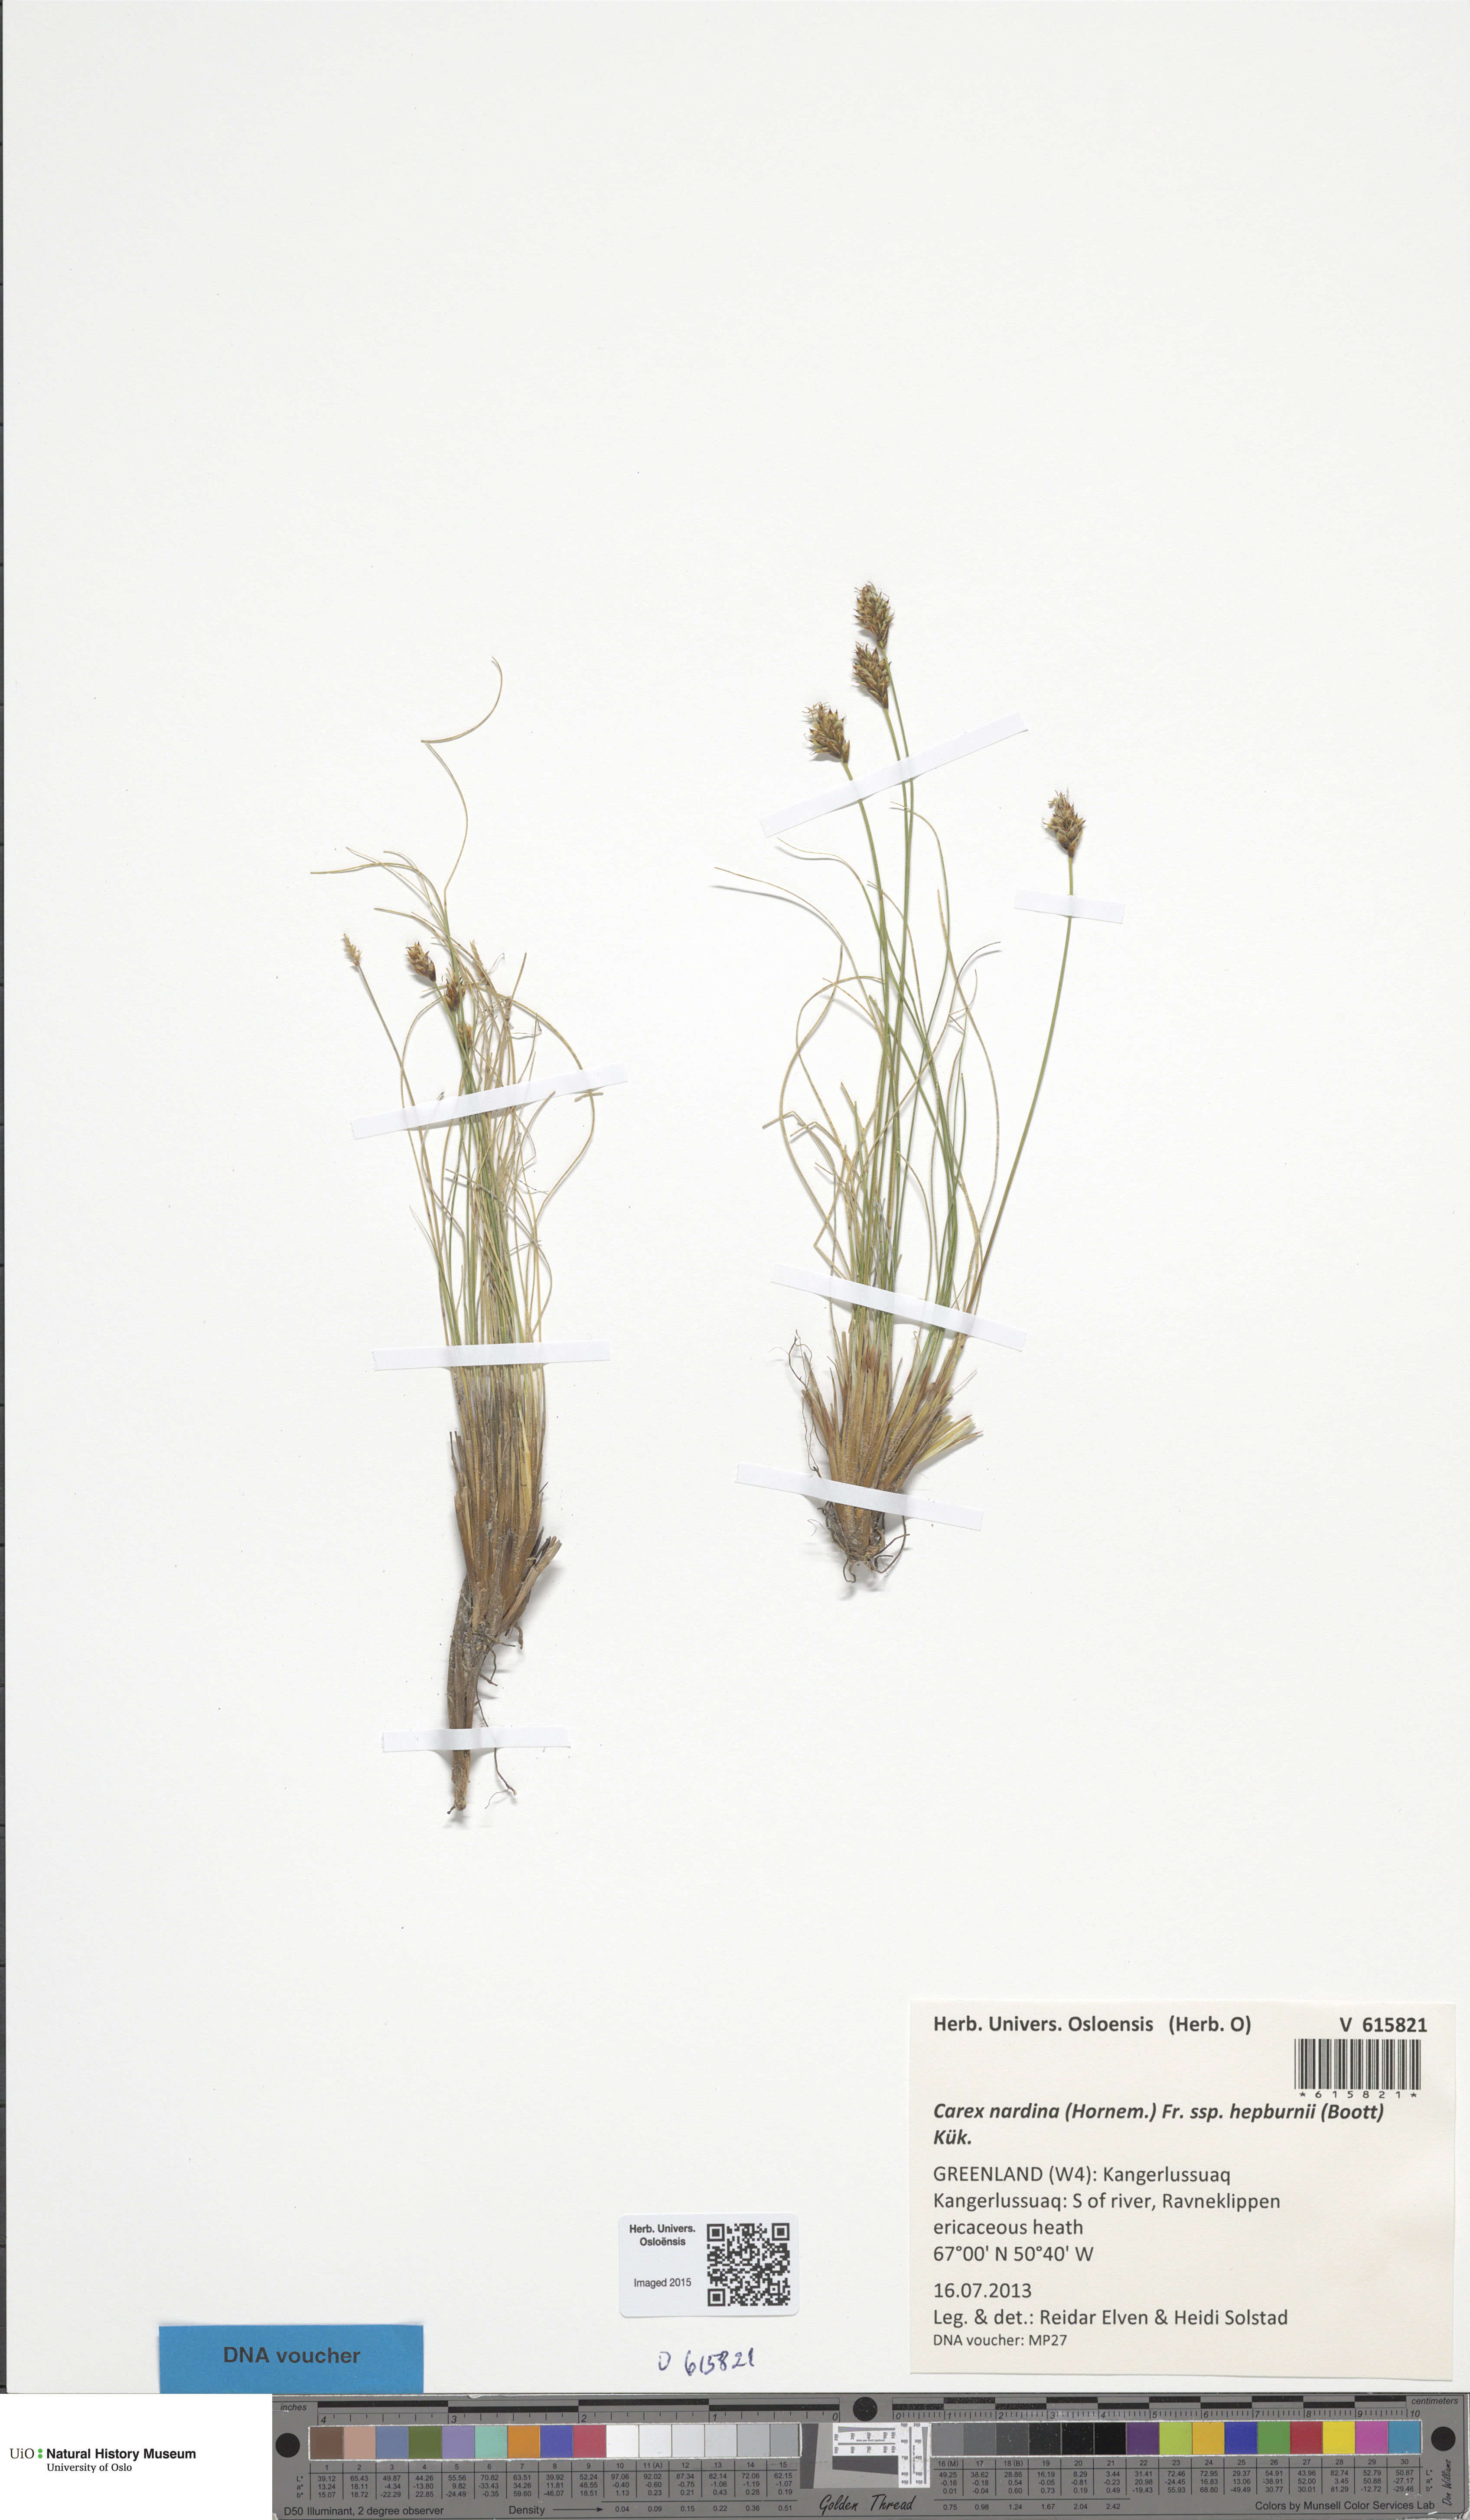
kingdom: Plantae
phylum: Tracheophyta
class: Liliopsida
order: Poales
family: Cyperaceae
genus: Carex
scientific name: Carex nardina
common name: Nard sedge
